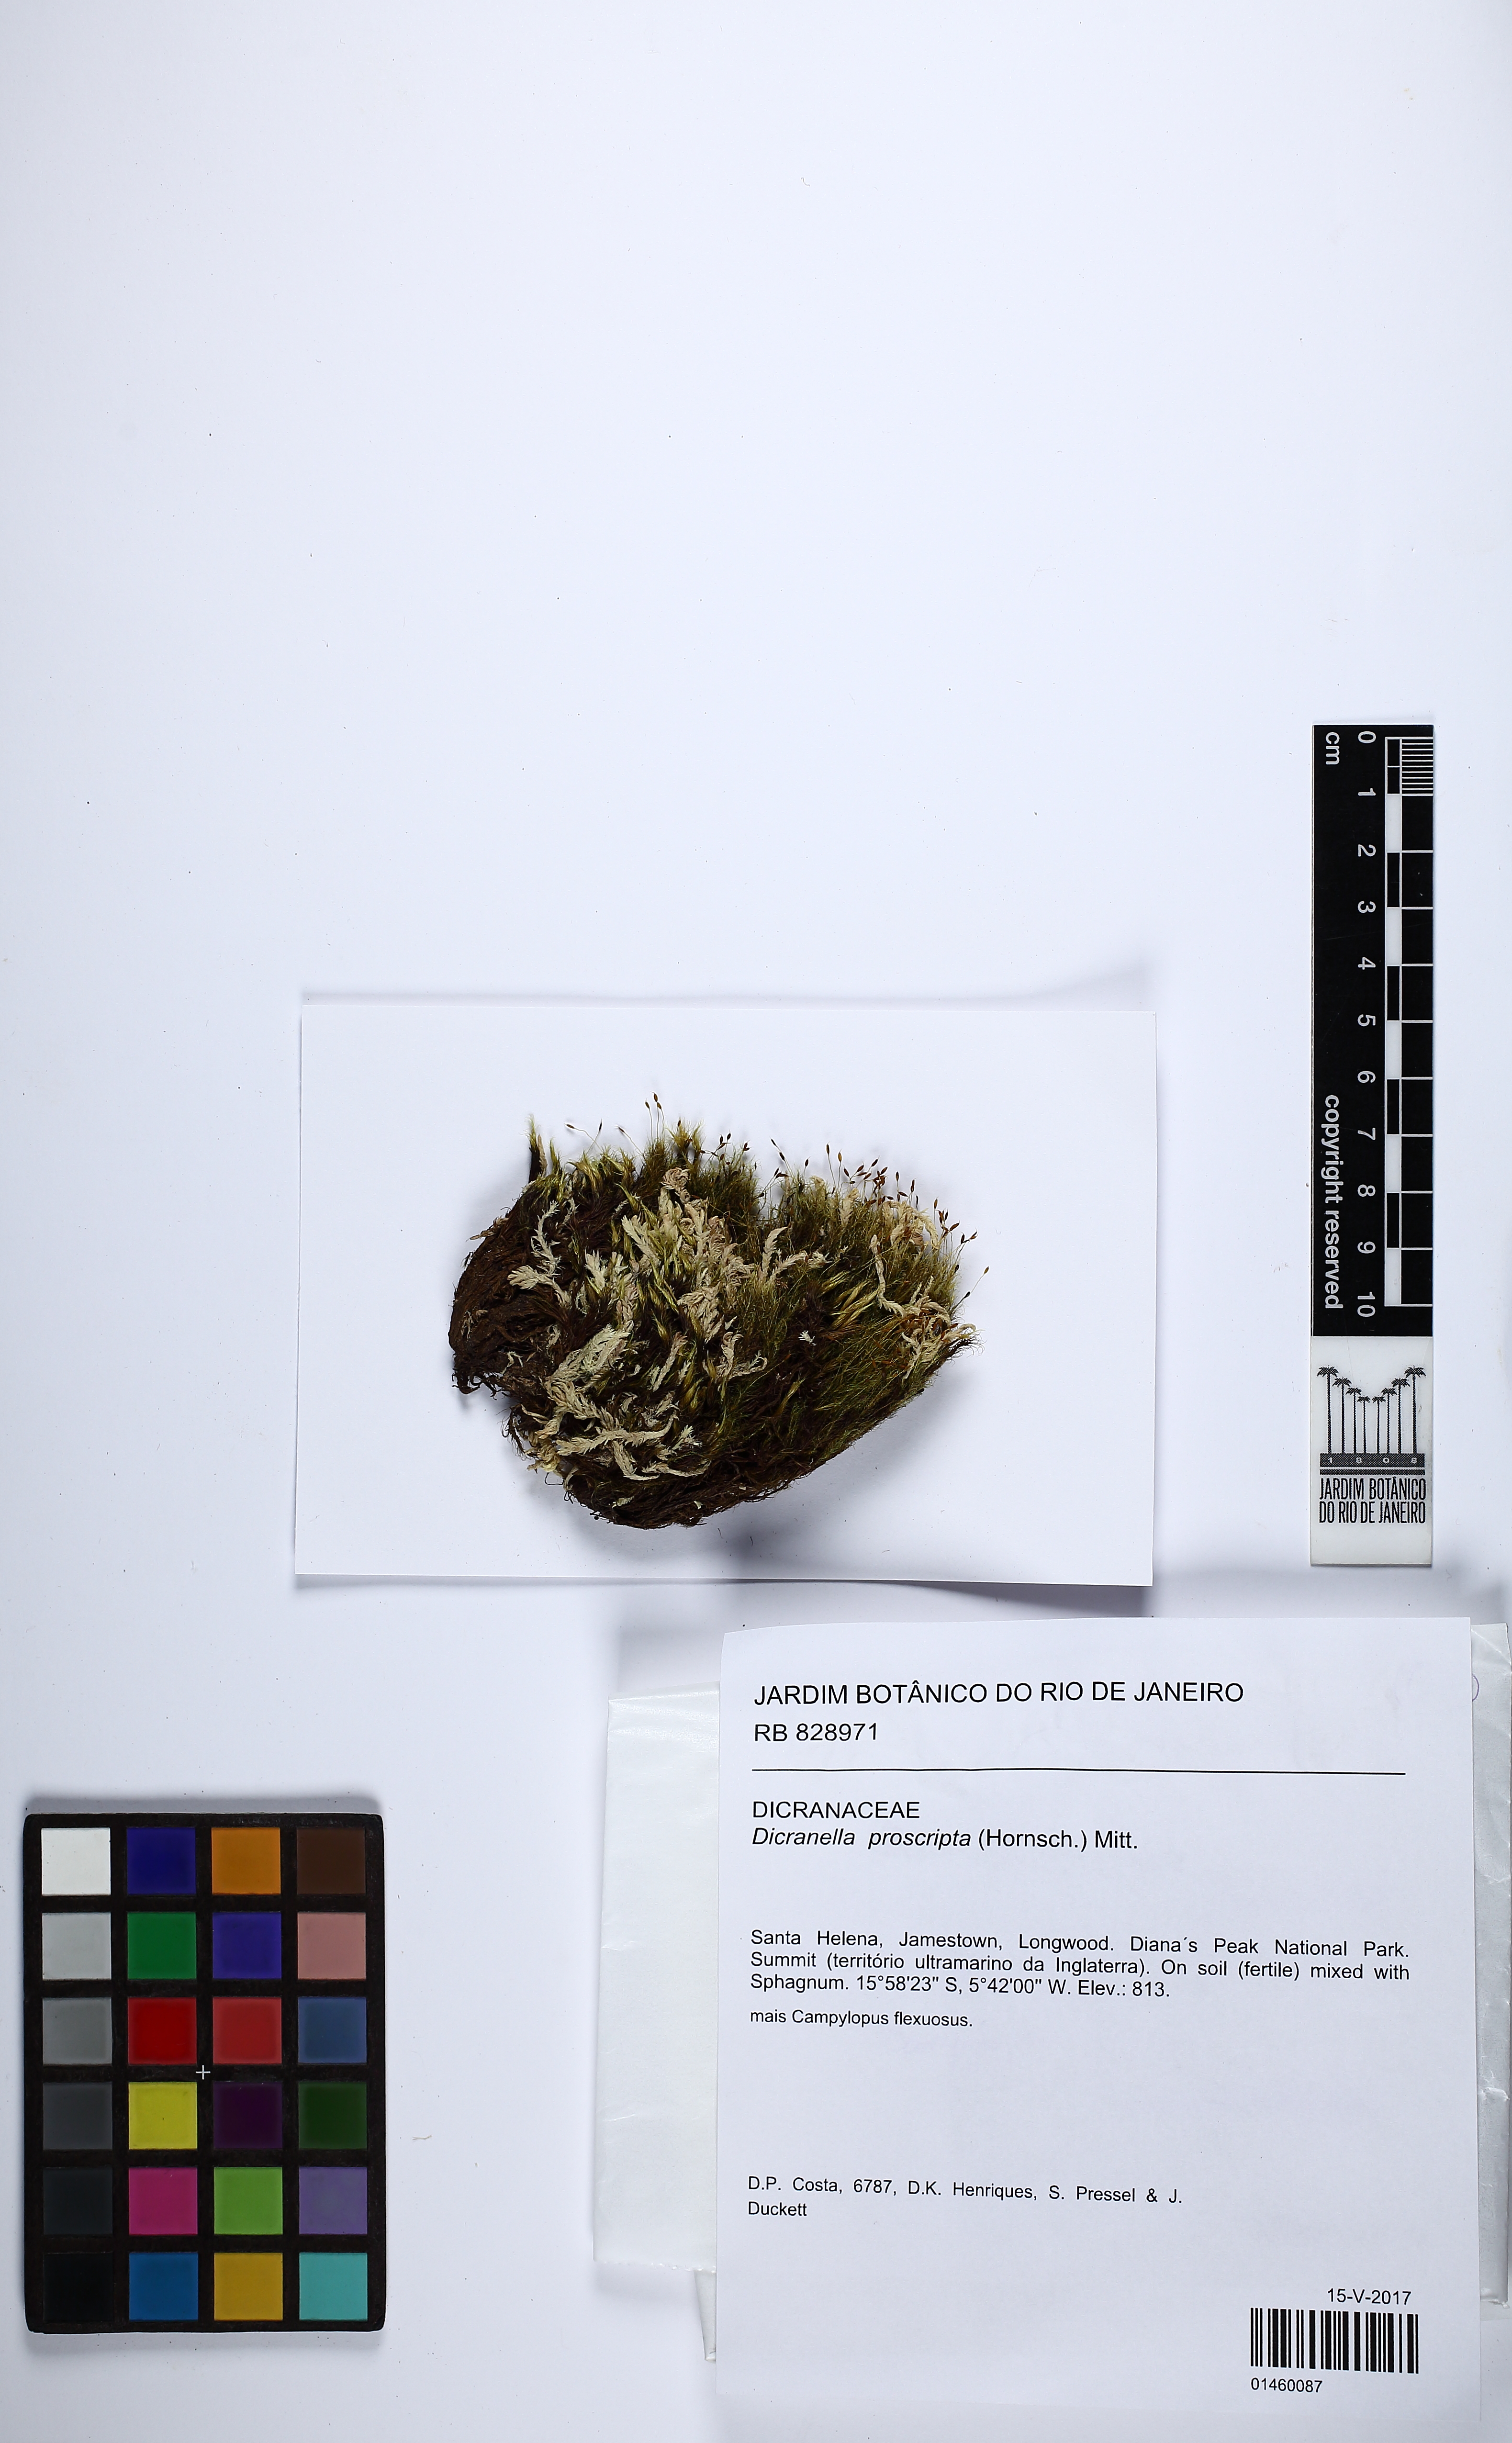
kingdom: Plantae
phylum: Bryophyta
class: Bryopsida
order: Dicranales
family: Dicranellaceae
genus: Dicranella
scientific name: Dicranella proscripta
